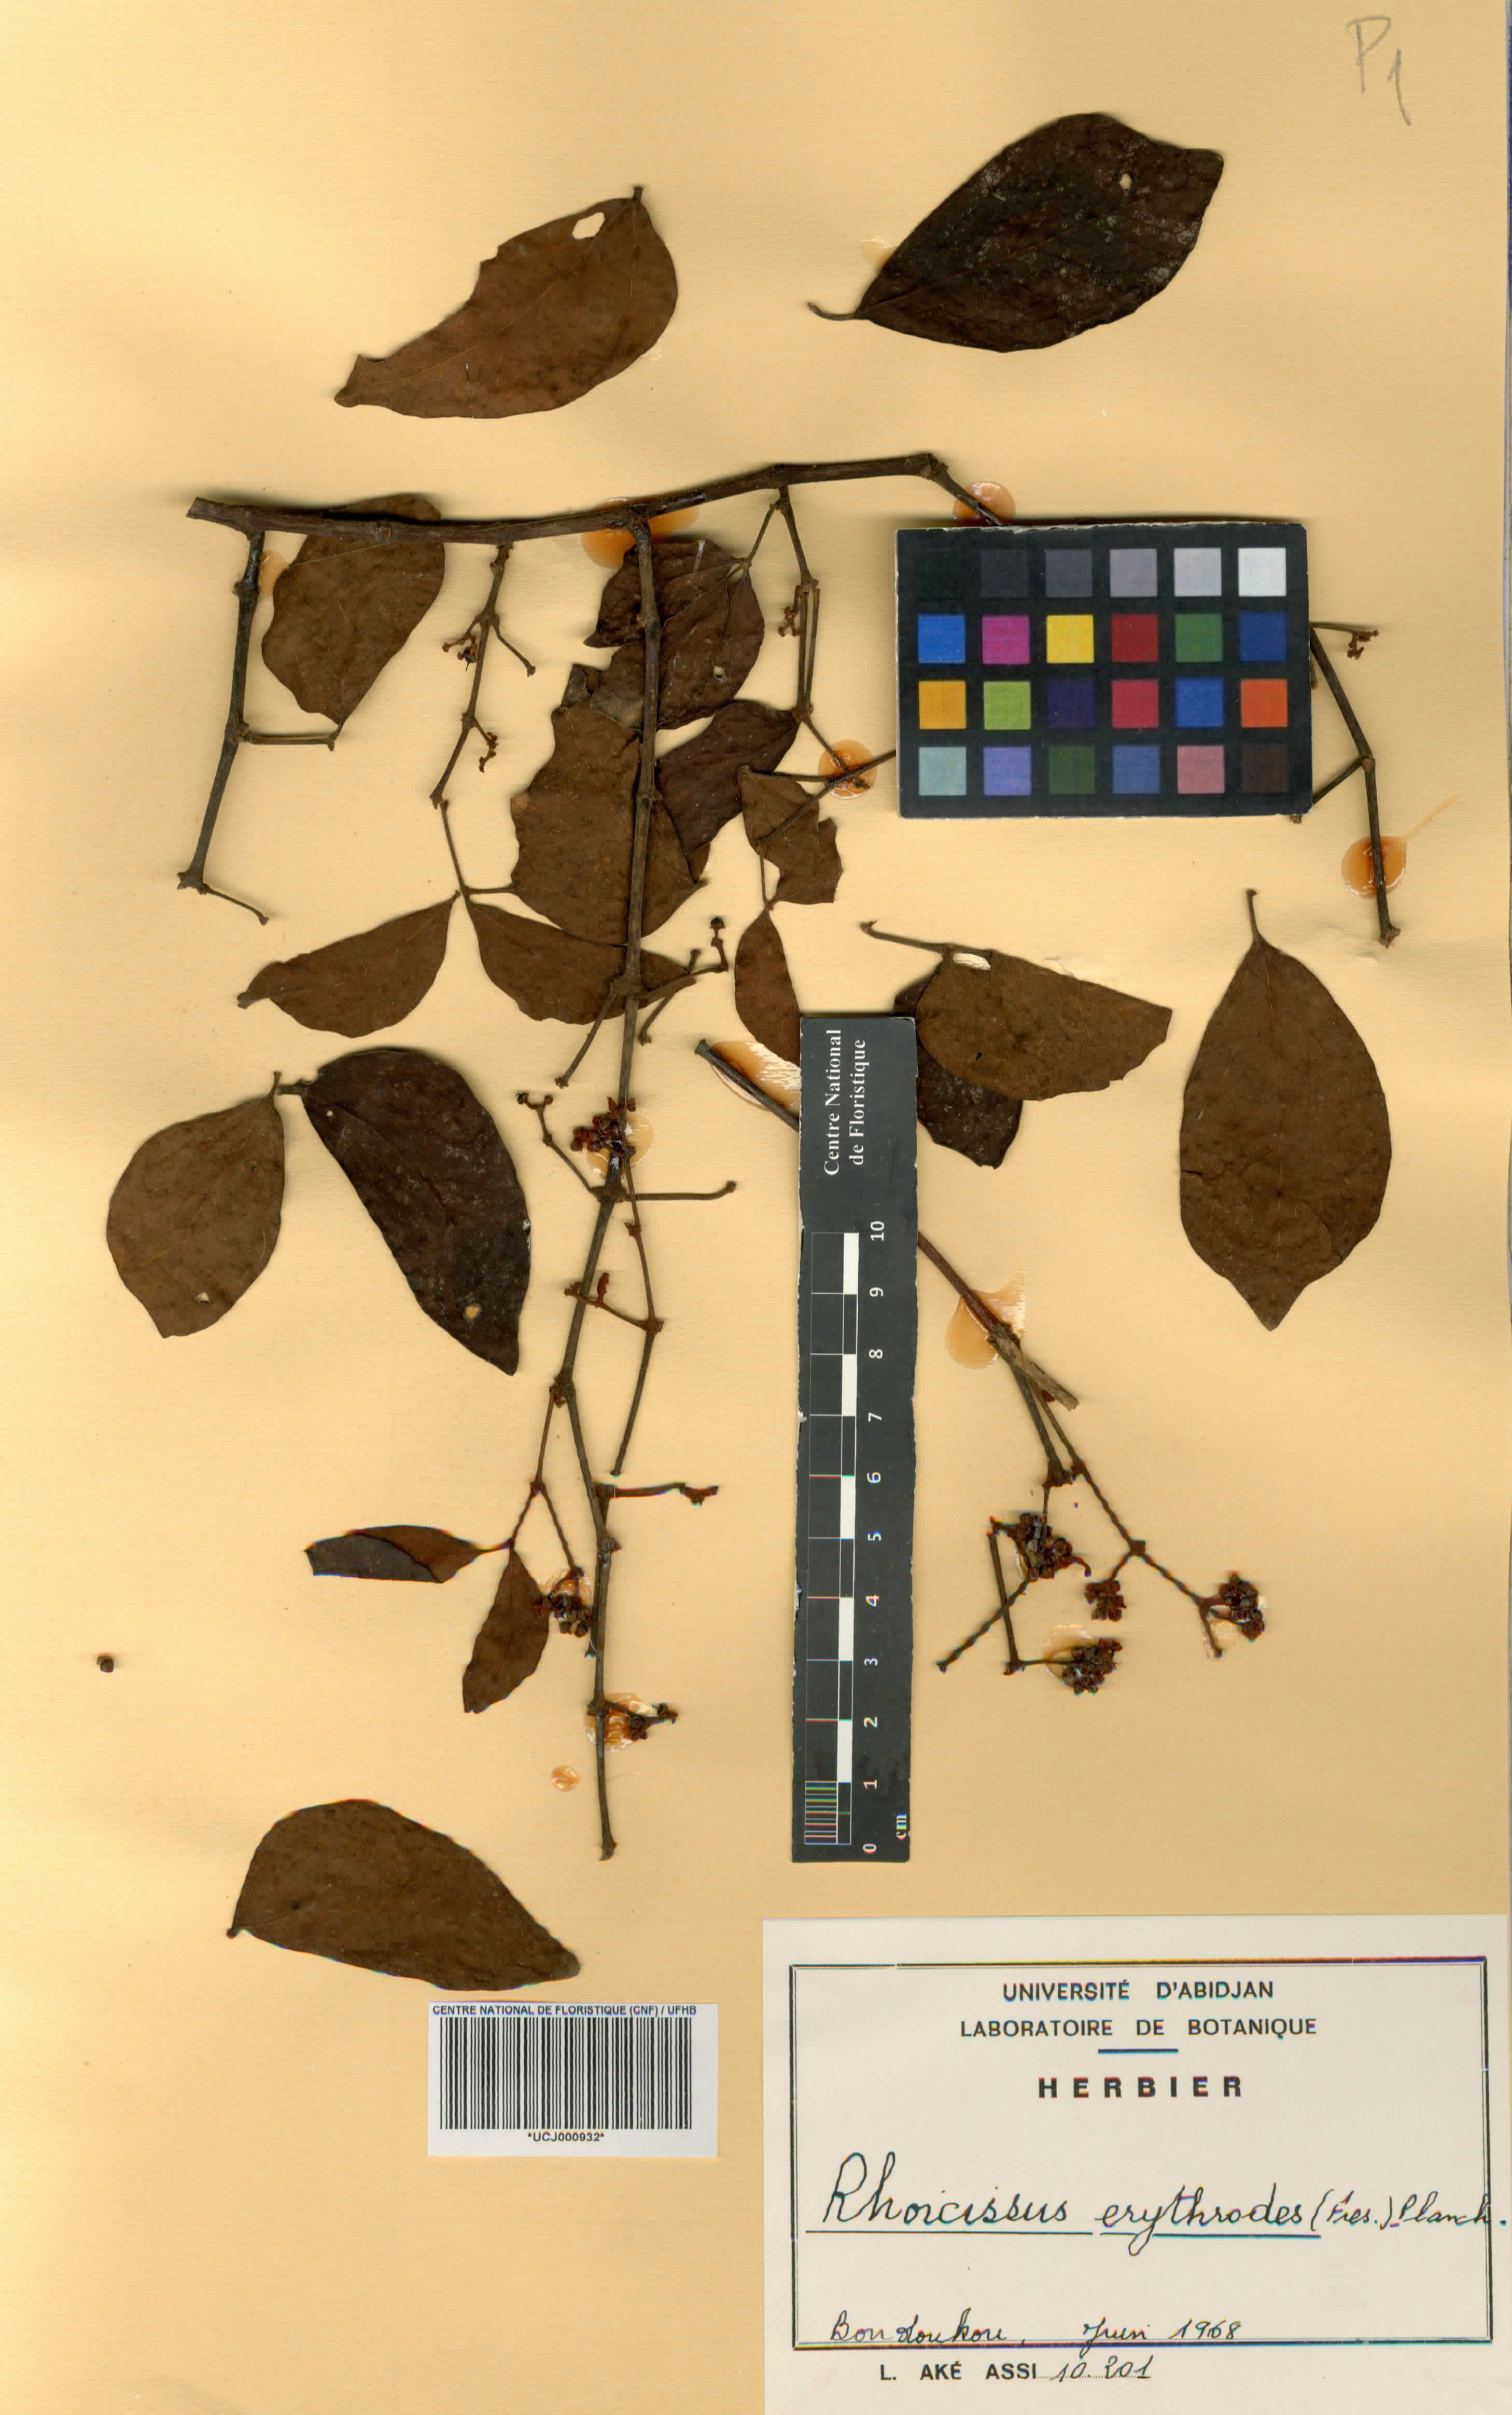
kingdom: Plantae
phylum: Tracheophyta
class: Magnoliopsida
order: Vitales
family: Vitaceae
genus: Rhoicissus
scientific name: Rhoicissus tridentata
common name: Common forest grape
